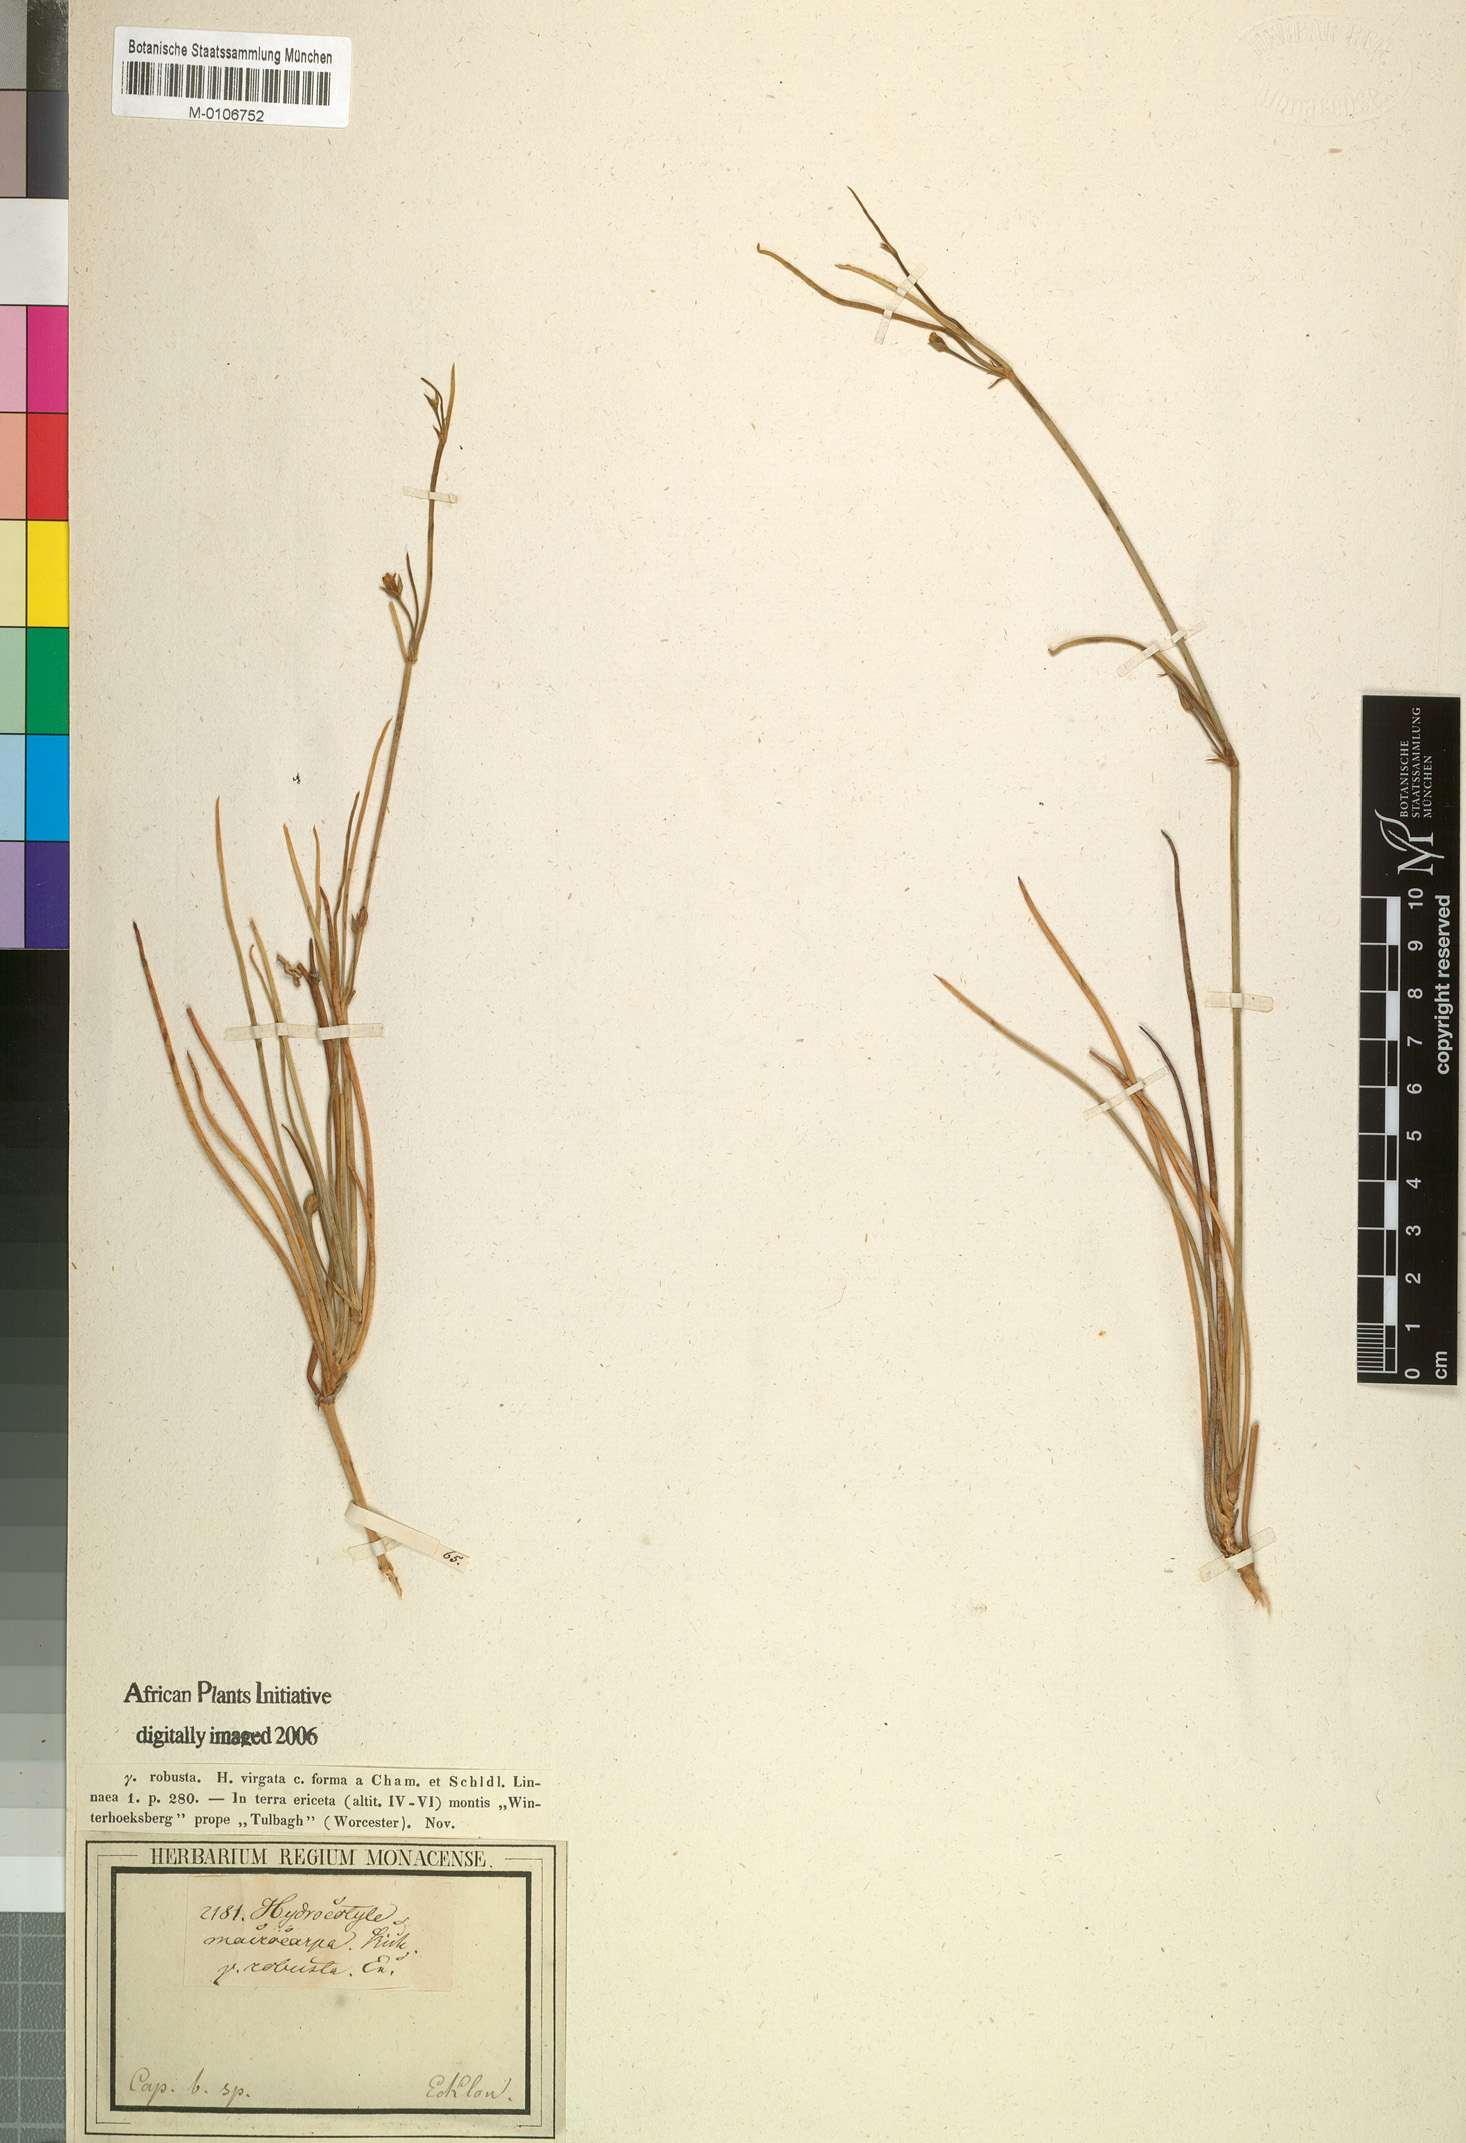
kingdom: Plantae
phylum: Tracheophyta
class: Magnoliopsida
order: Apiales
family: Apiaceae
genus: Centella
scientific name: Centella macrocarpa
